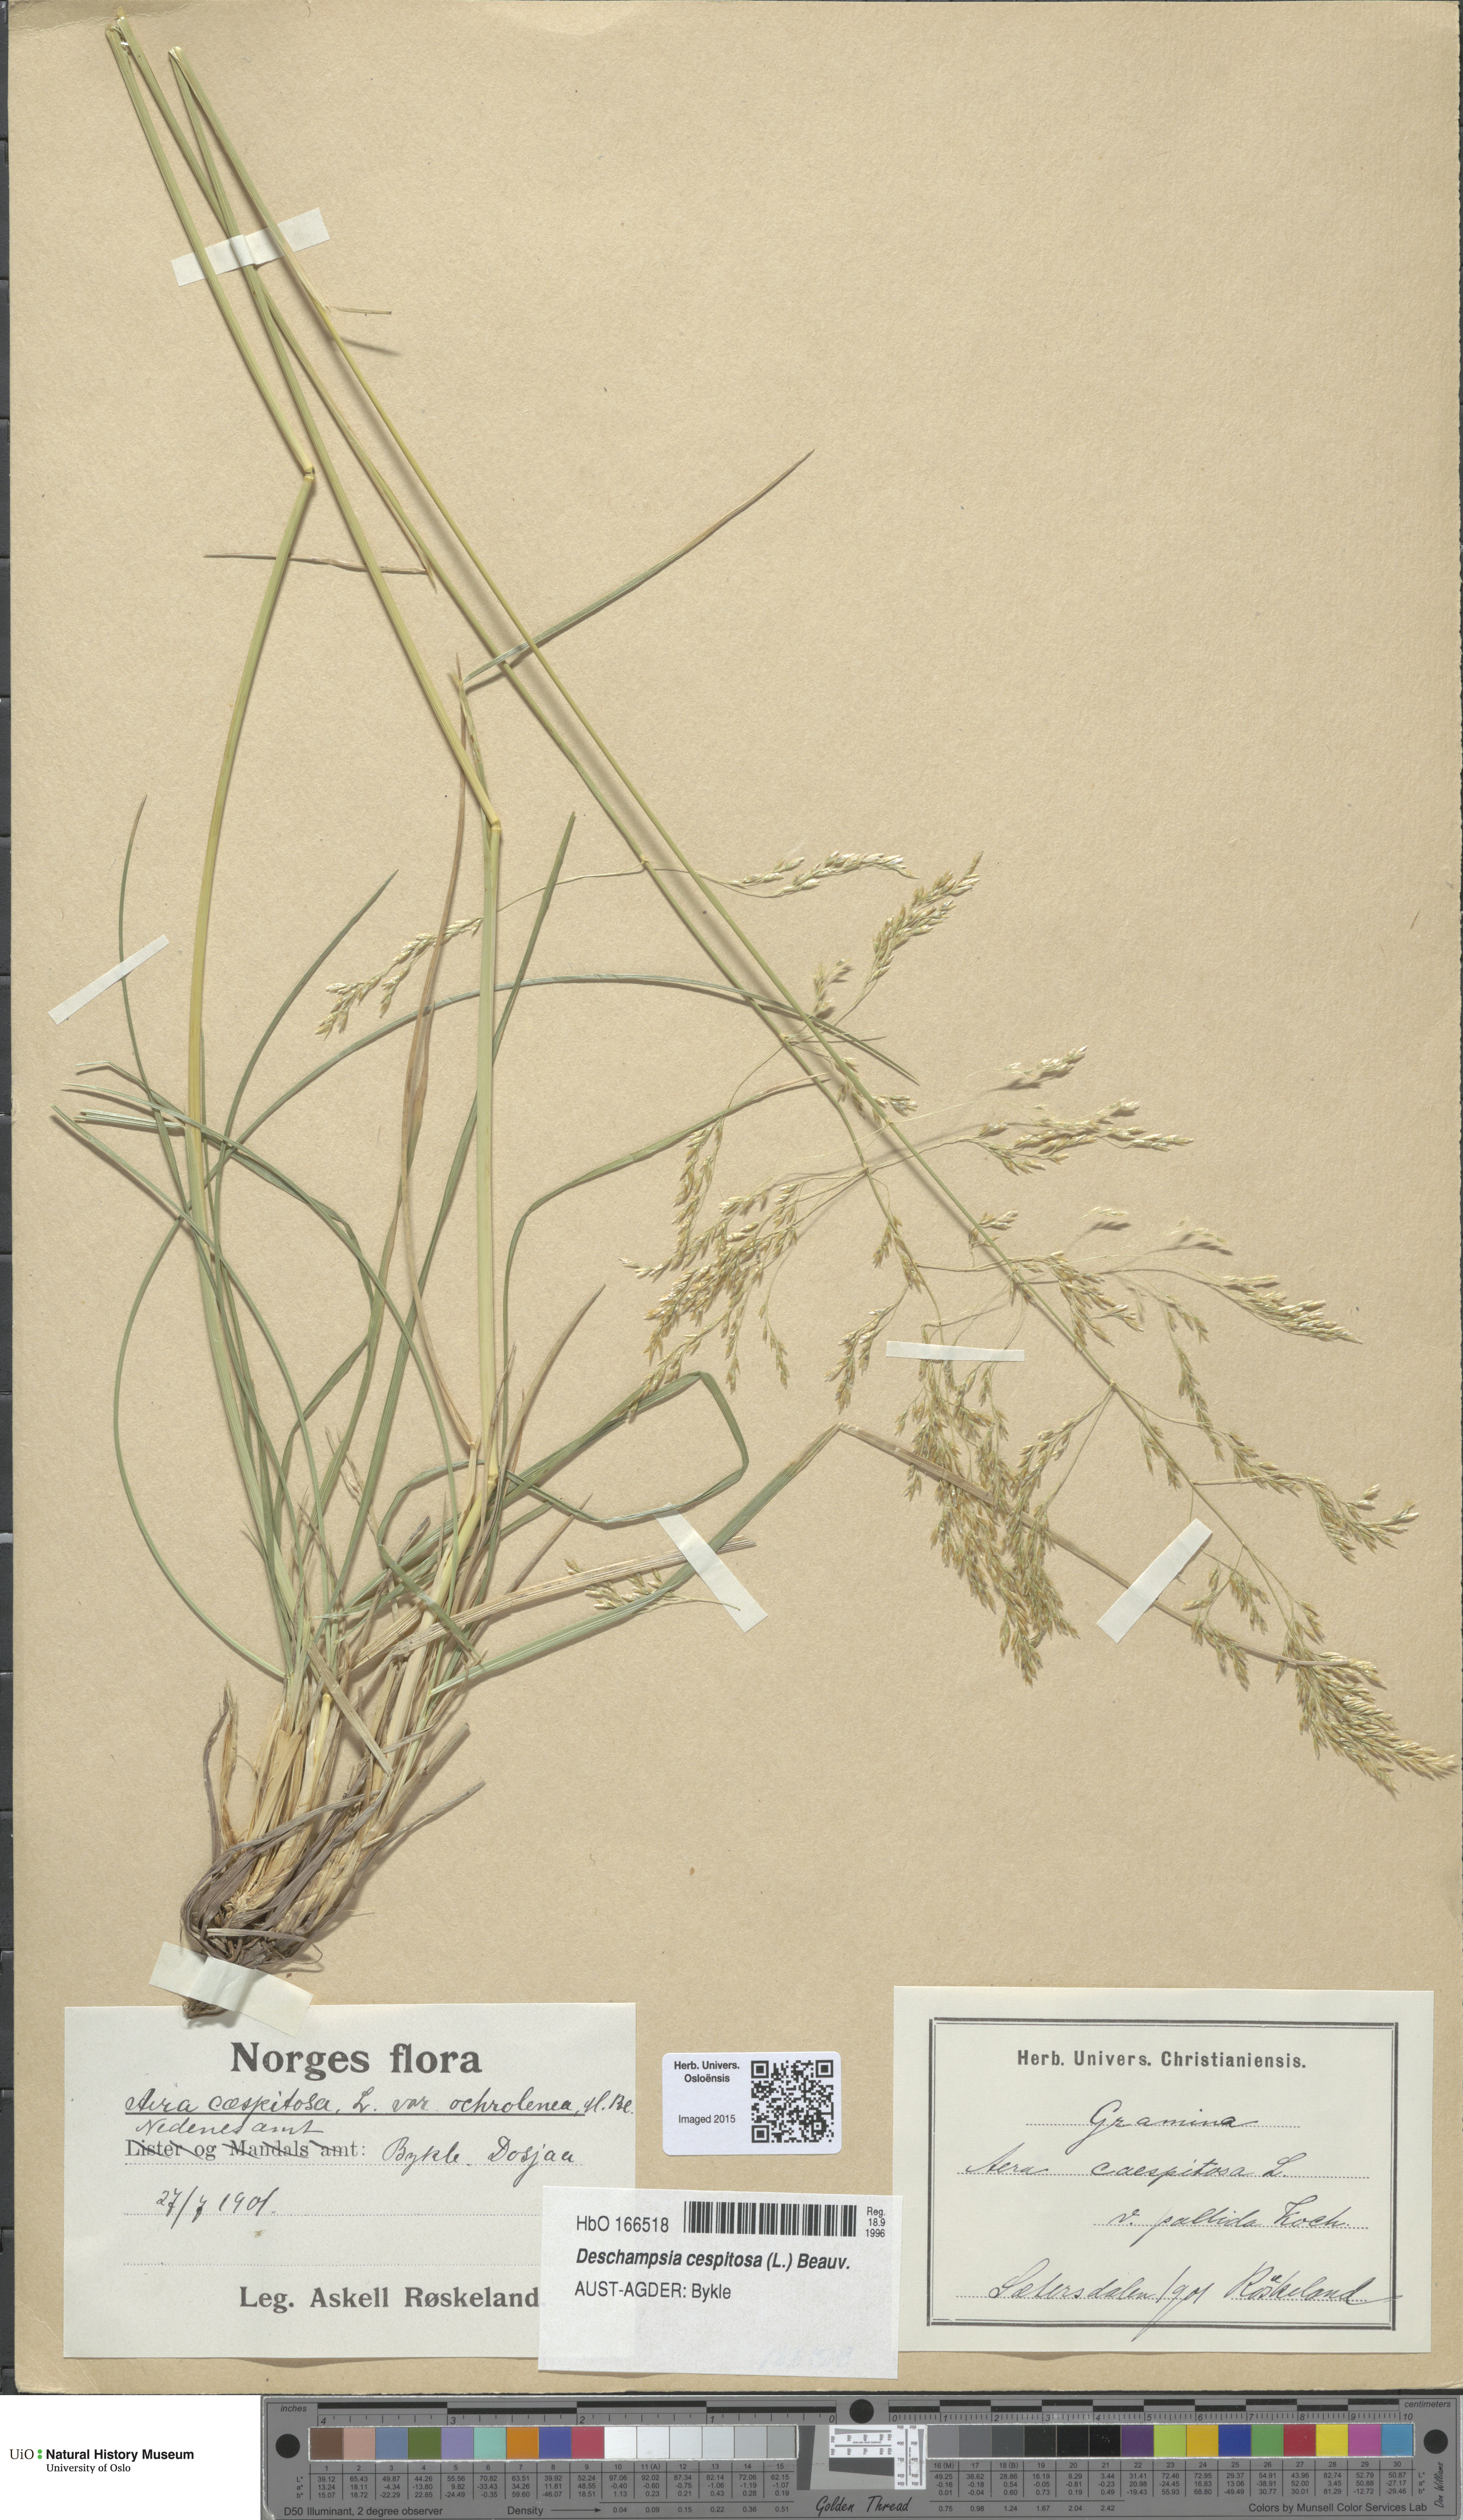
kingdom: Plantae
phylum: Tracheophyta
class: Liliopsida
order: Poales
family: Poaceae
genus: Deschampsia
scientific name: Deschampsia cespitosa
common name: Tufted hair-grass
